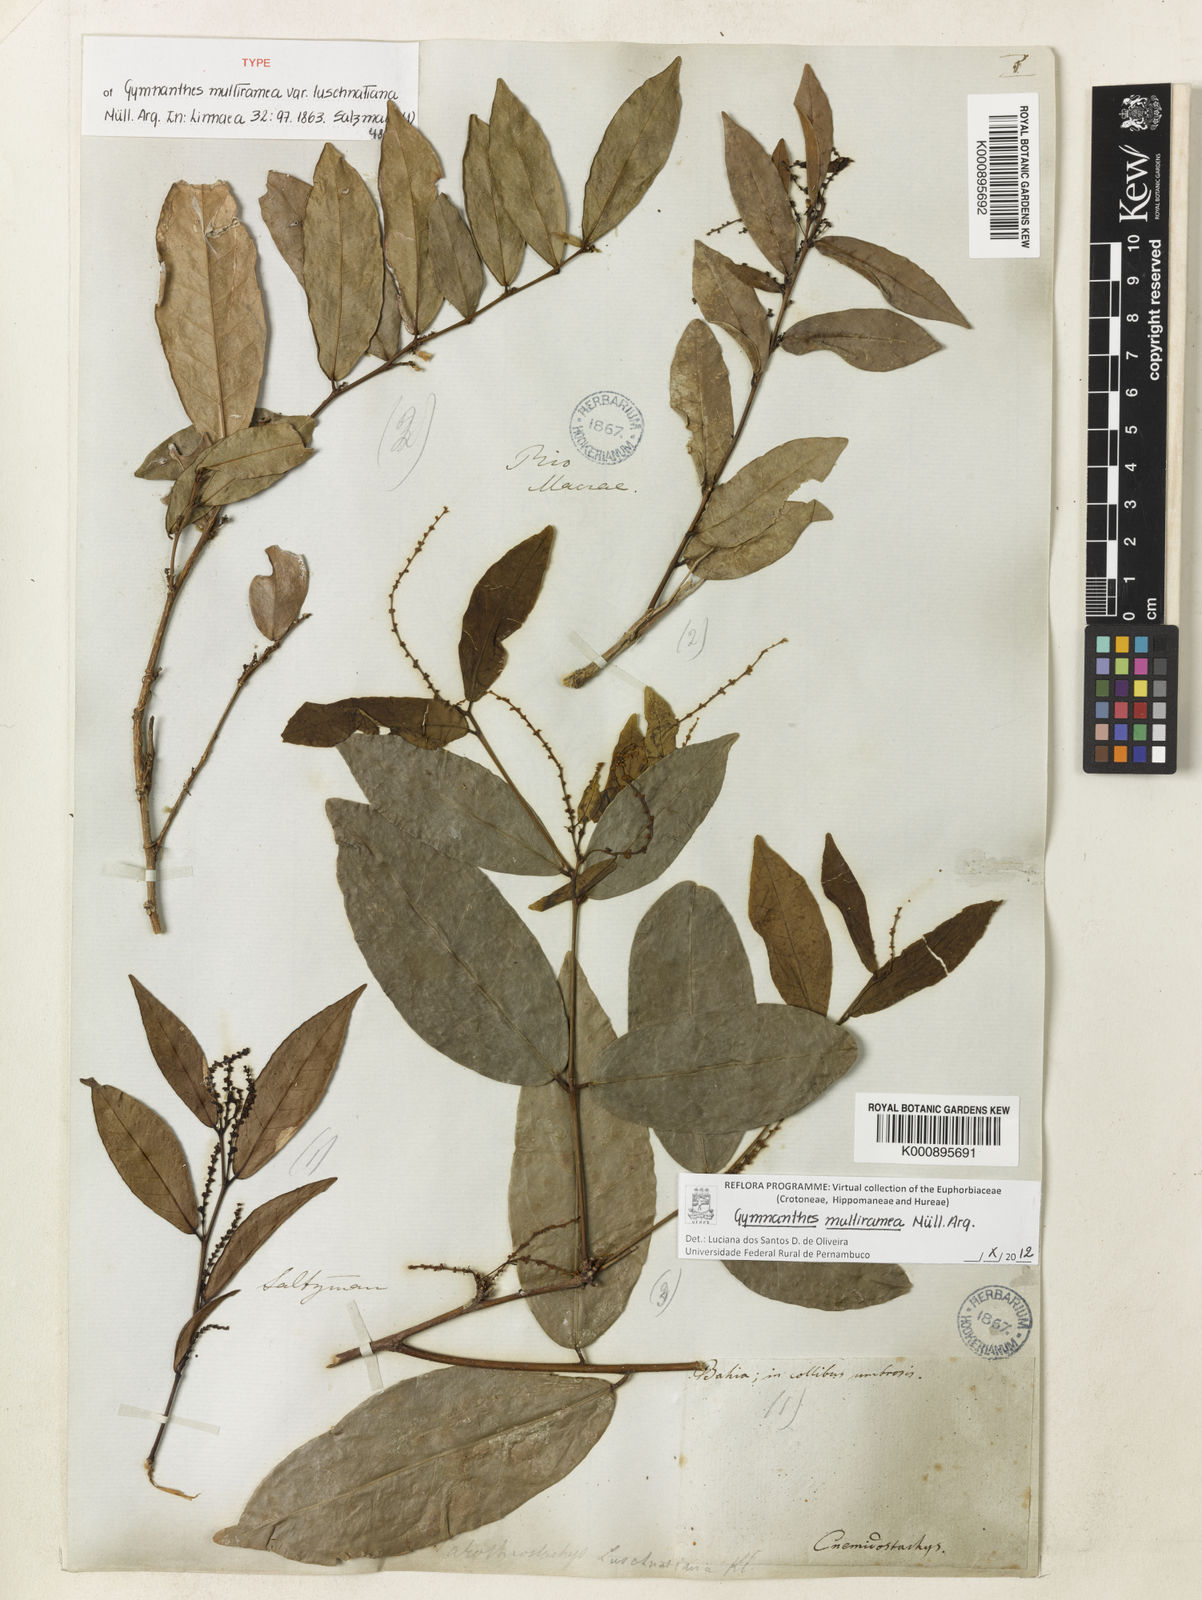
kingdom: Plantae
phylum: Tracheophyta
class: Magnoliopsida
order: Malpighiales
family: Euphorbiaceae
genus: Gymnanthes
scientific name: Gymnanthes
